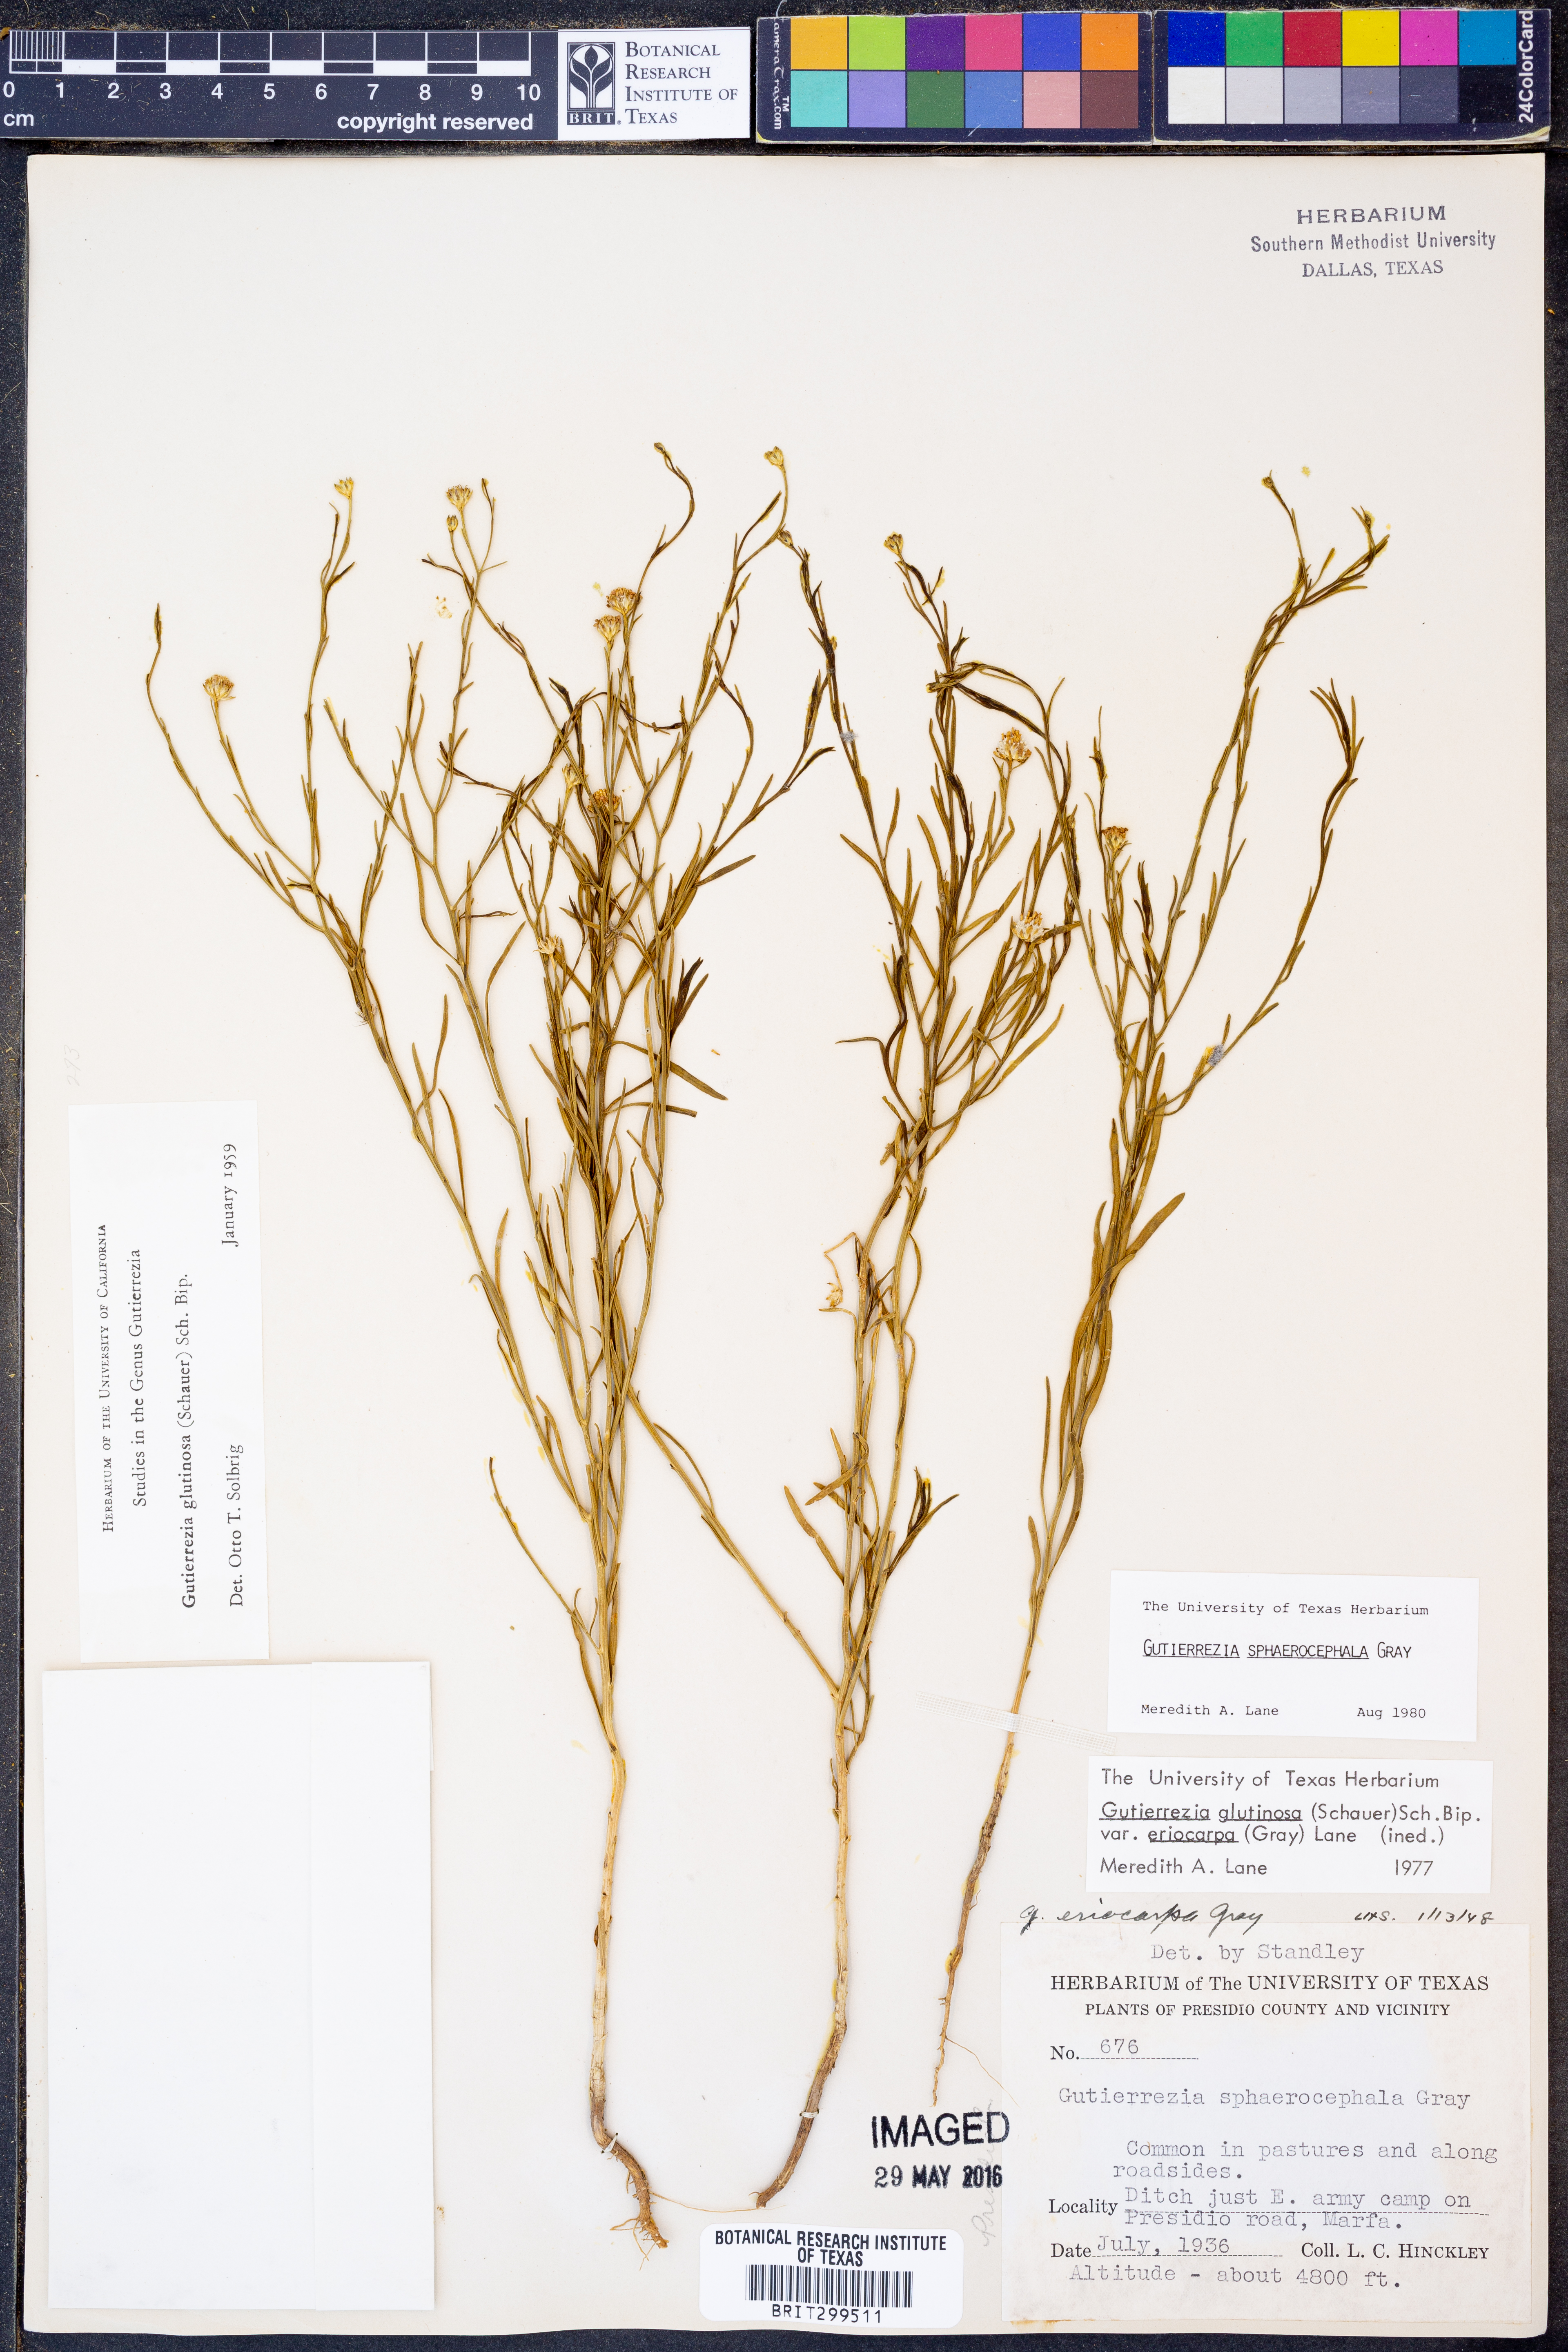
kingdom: Plantae
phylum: Tracheophyta
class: Magnoliopsida
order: Asterales
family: Asteraceae
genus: Gutierrezia
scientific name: Gutierrezia sphaerocephala
